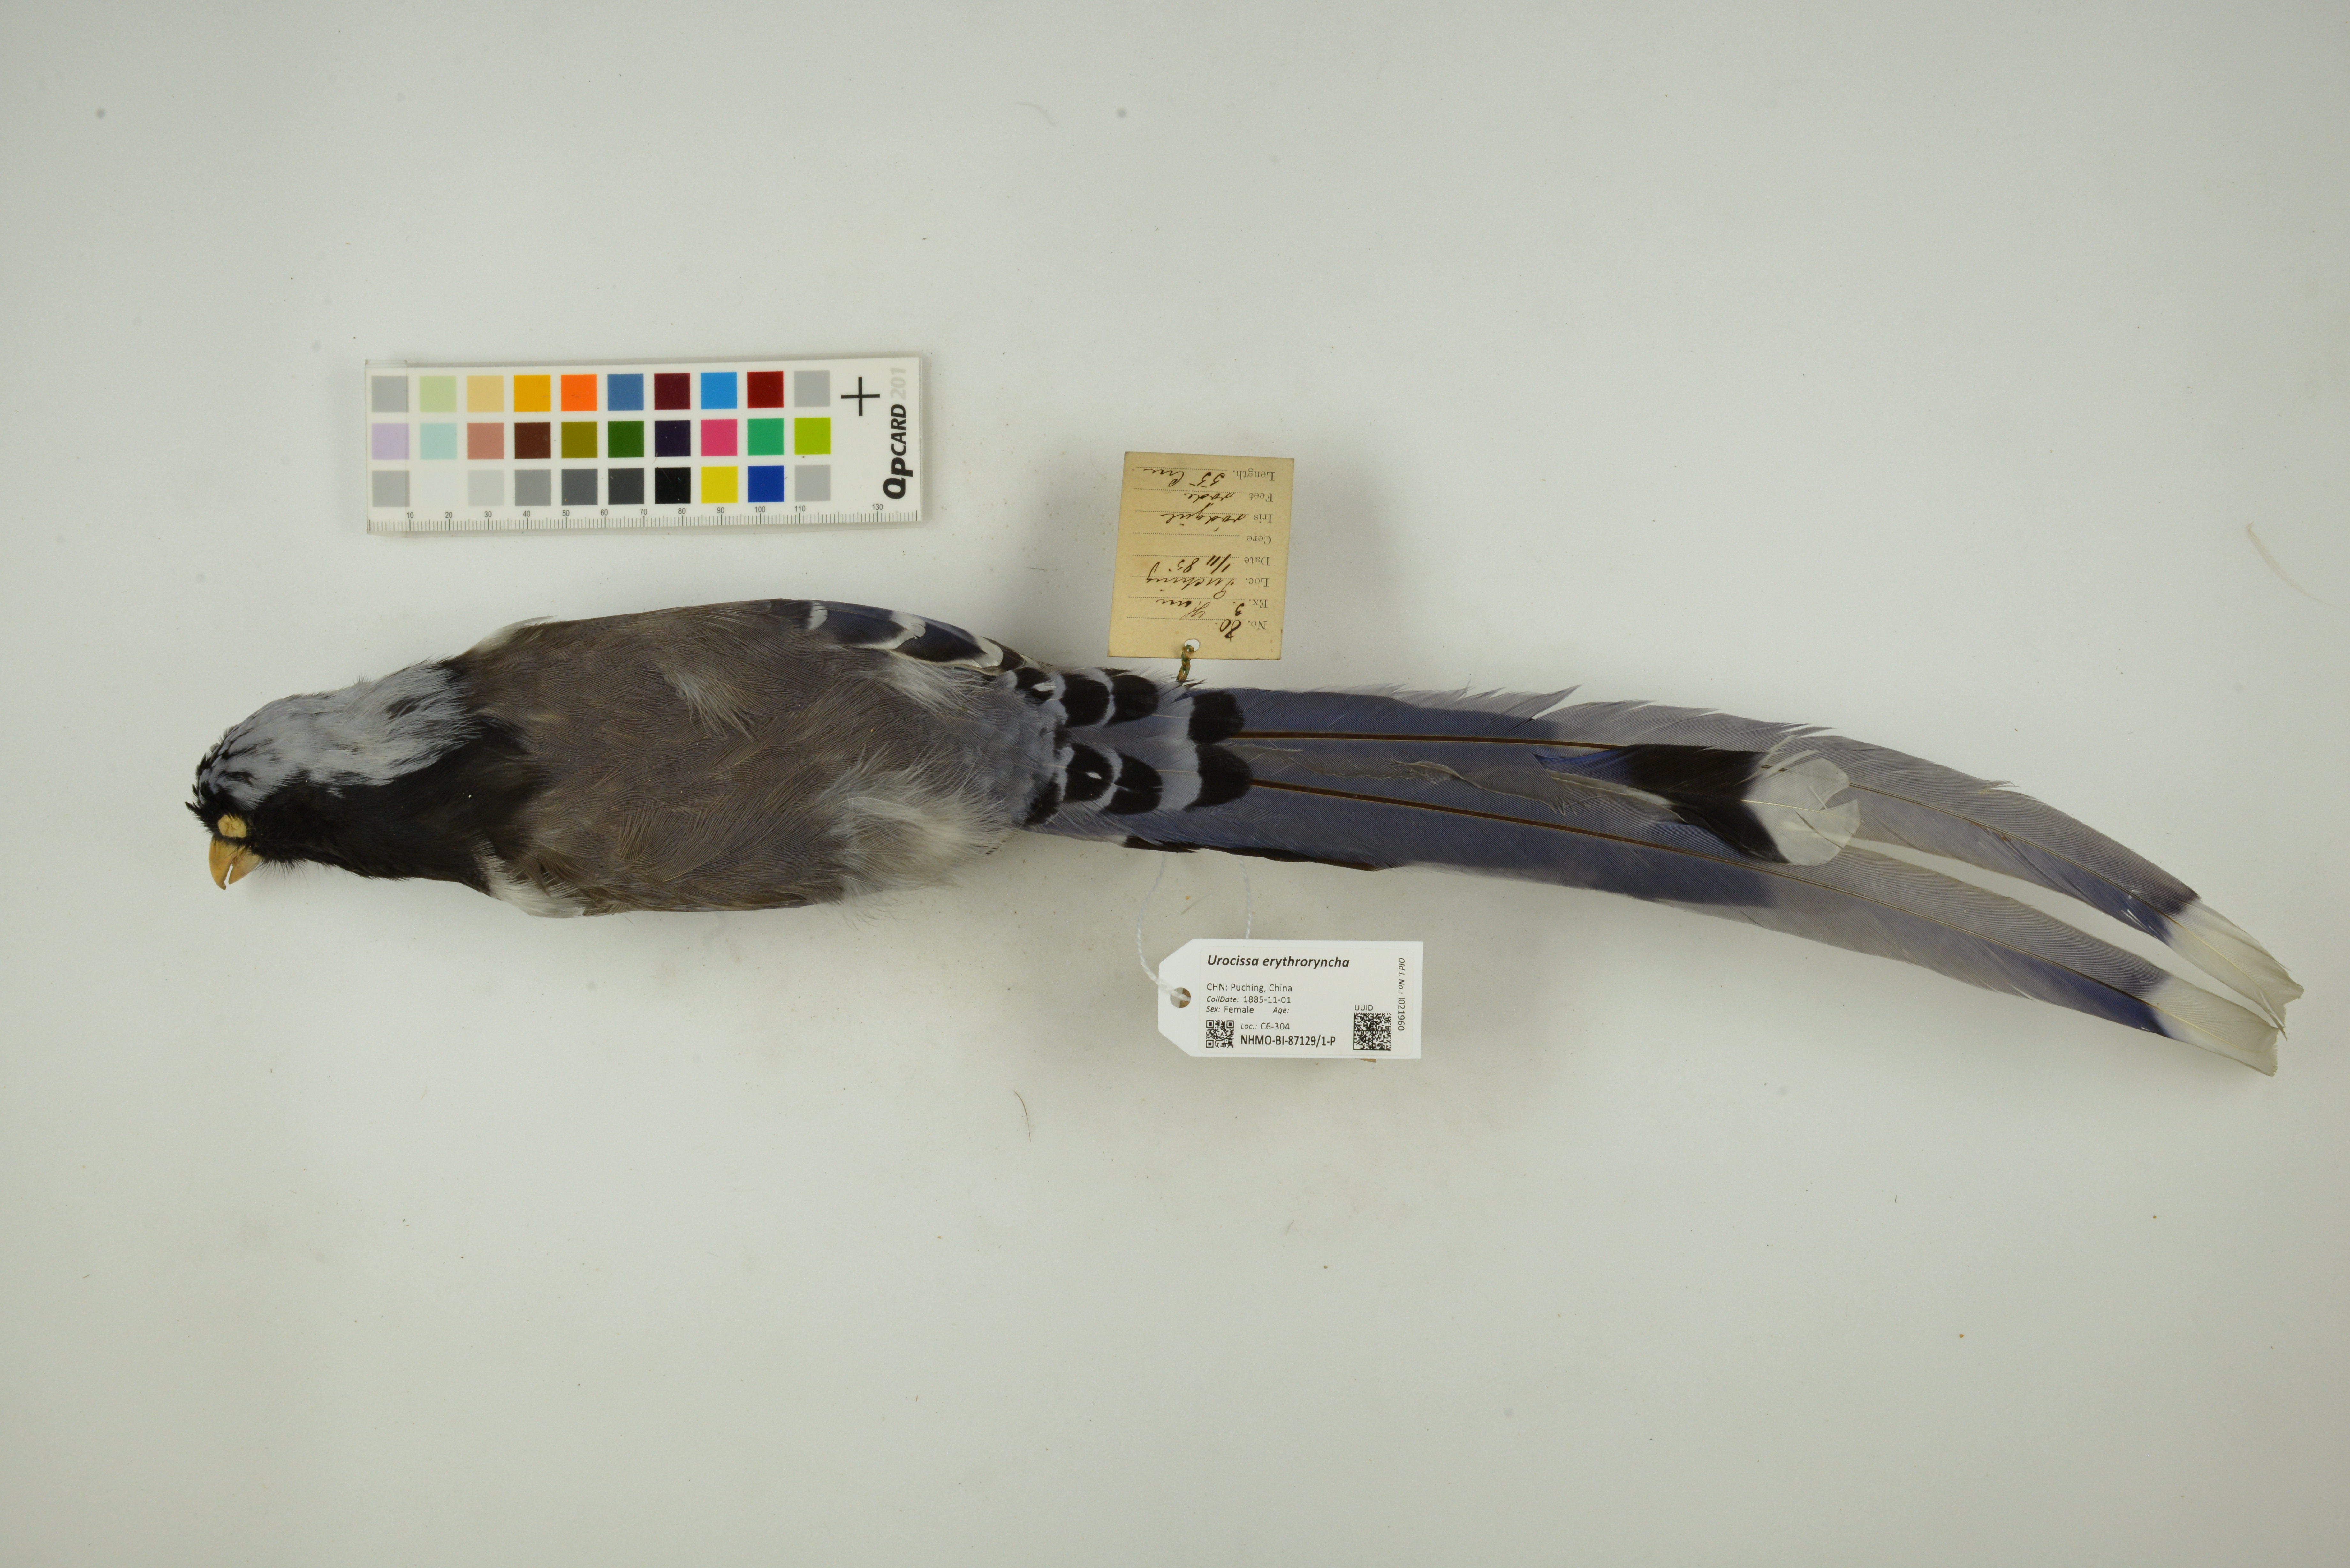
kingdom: Animalia
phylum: Chordata
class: Aves
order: Passeriformes
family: Corvidae
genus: Urocissa
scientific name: Urocissa erythroryncha
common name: Red-billed blue magpie
